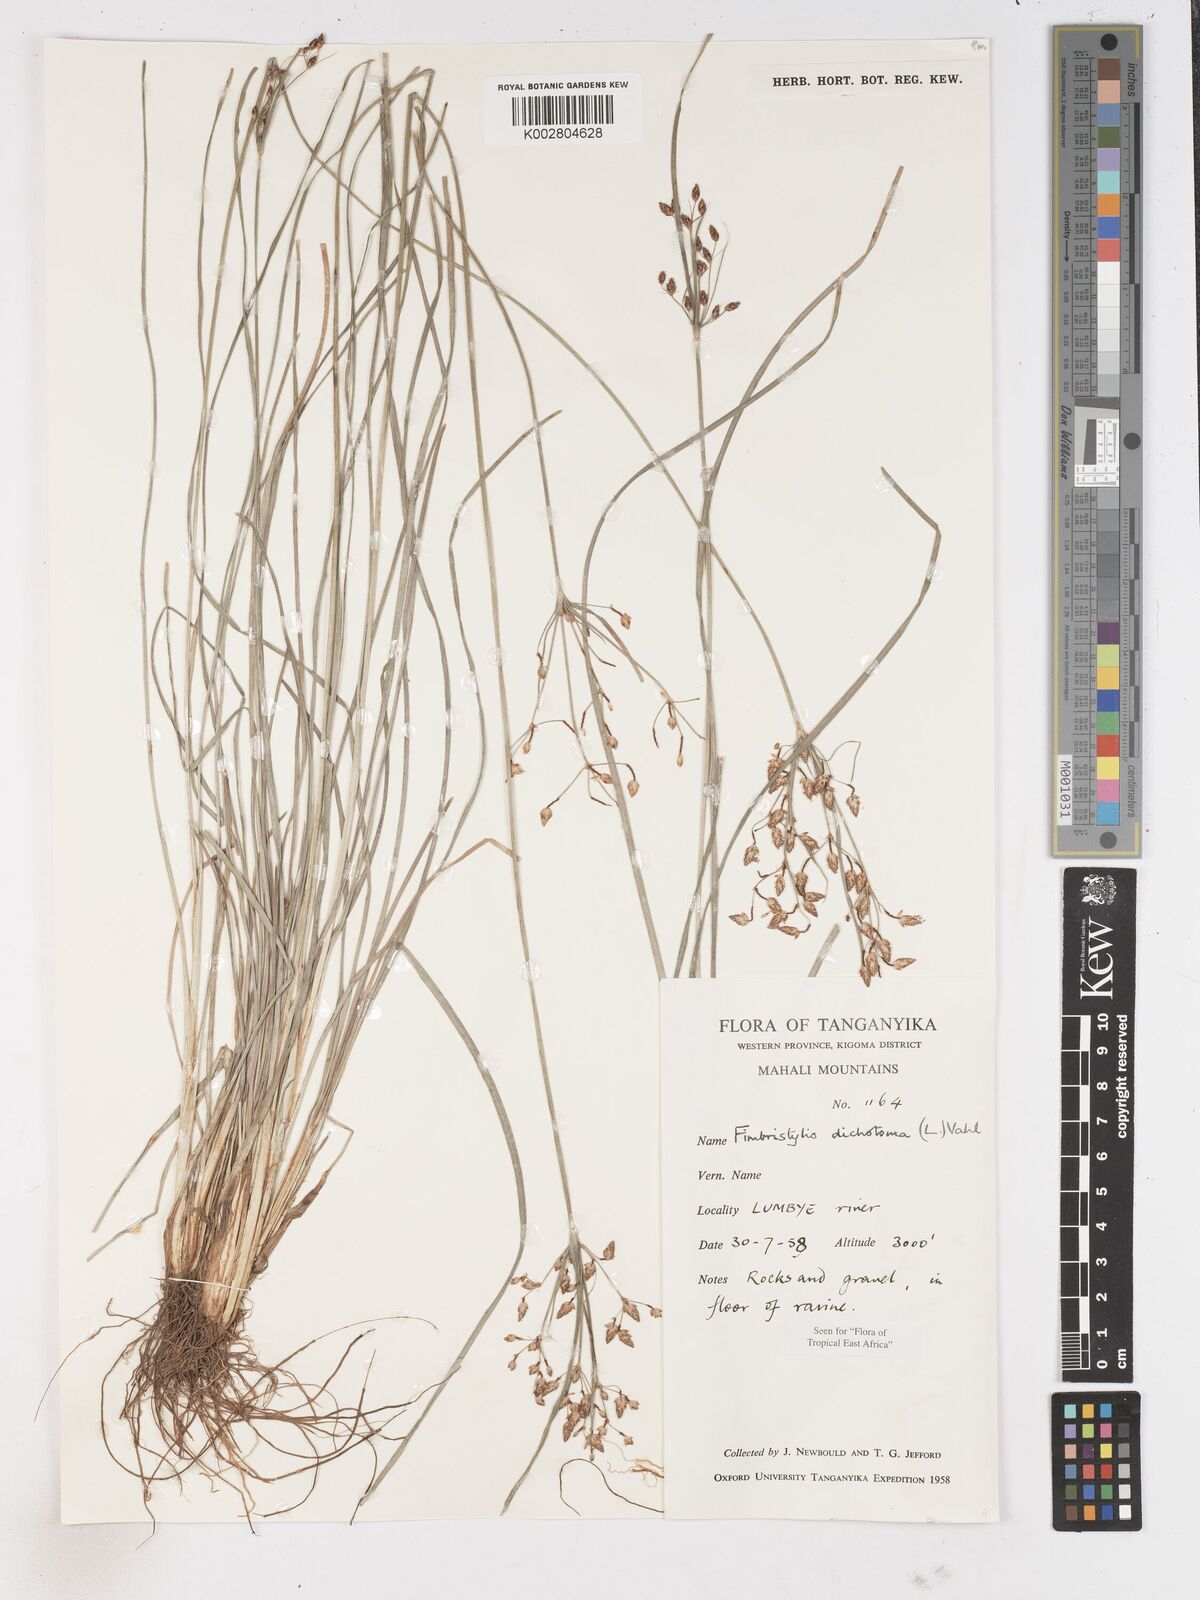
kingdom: Plantae
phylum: Tracheophyta
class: Liliopsida
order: Poales
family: Cyperaceae
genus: Fimbristylis
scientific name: Fimbristylis dichotoma
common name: Forked fimbry
